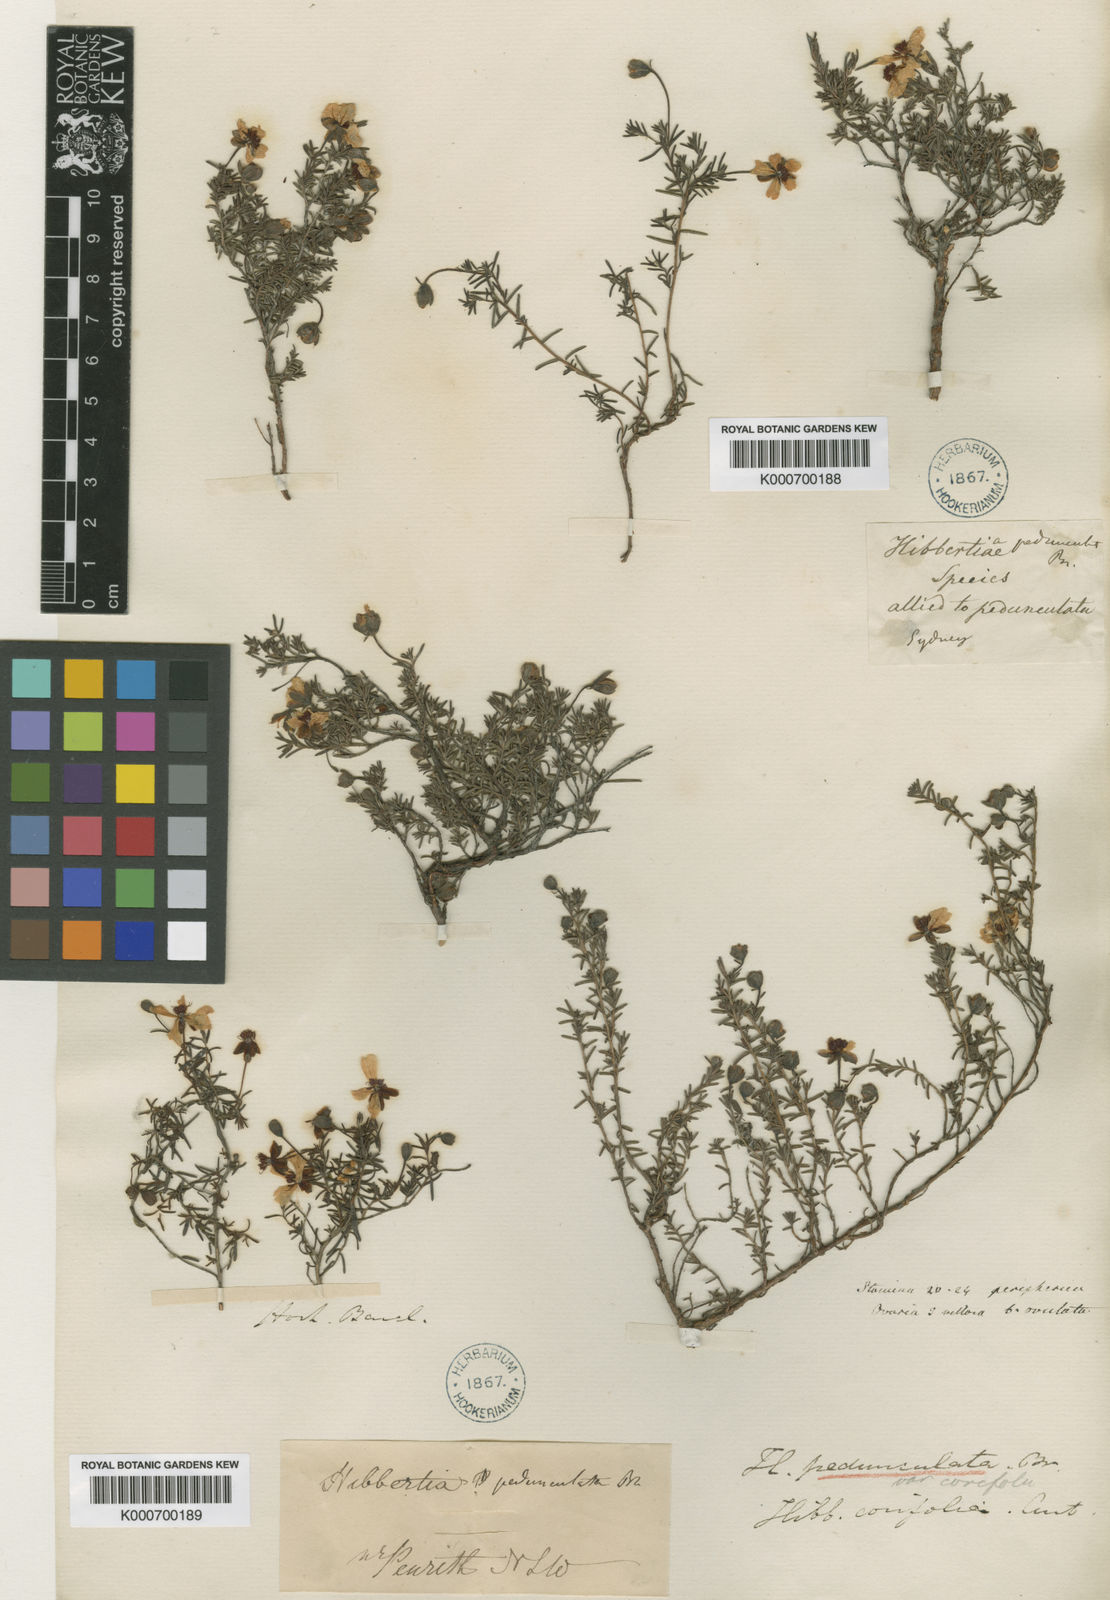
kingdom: Plantae
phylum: Tracheophyta
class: Magnoliopsida
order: Dilleniales
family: Dilleniaceae
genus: Hibbertia
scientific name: Hibbertia pedunculata
